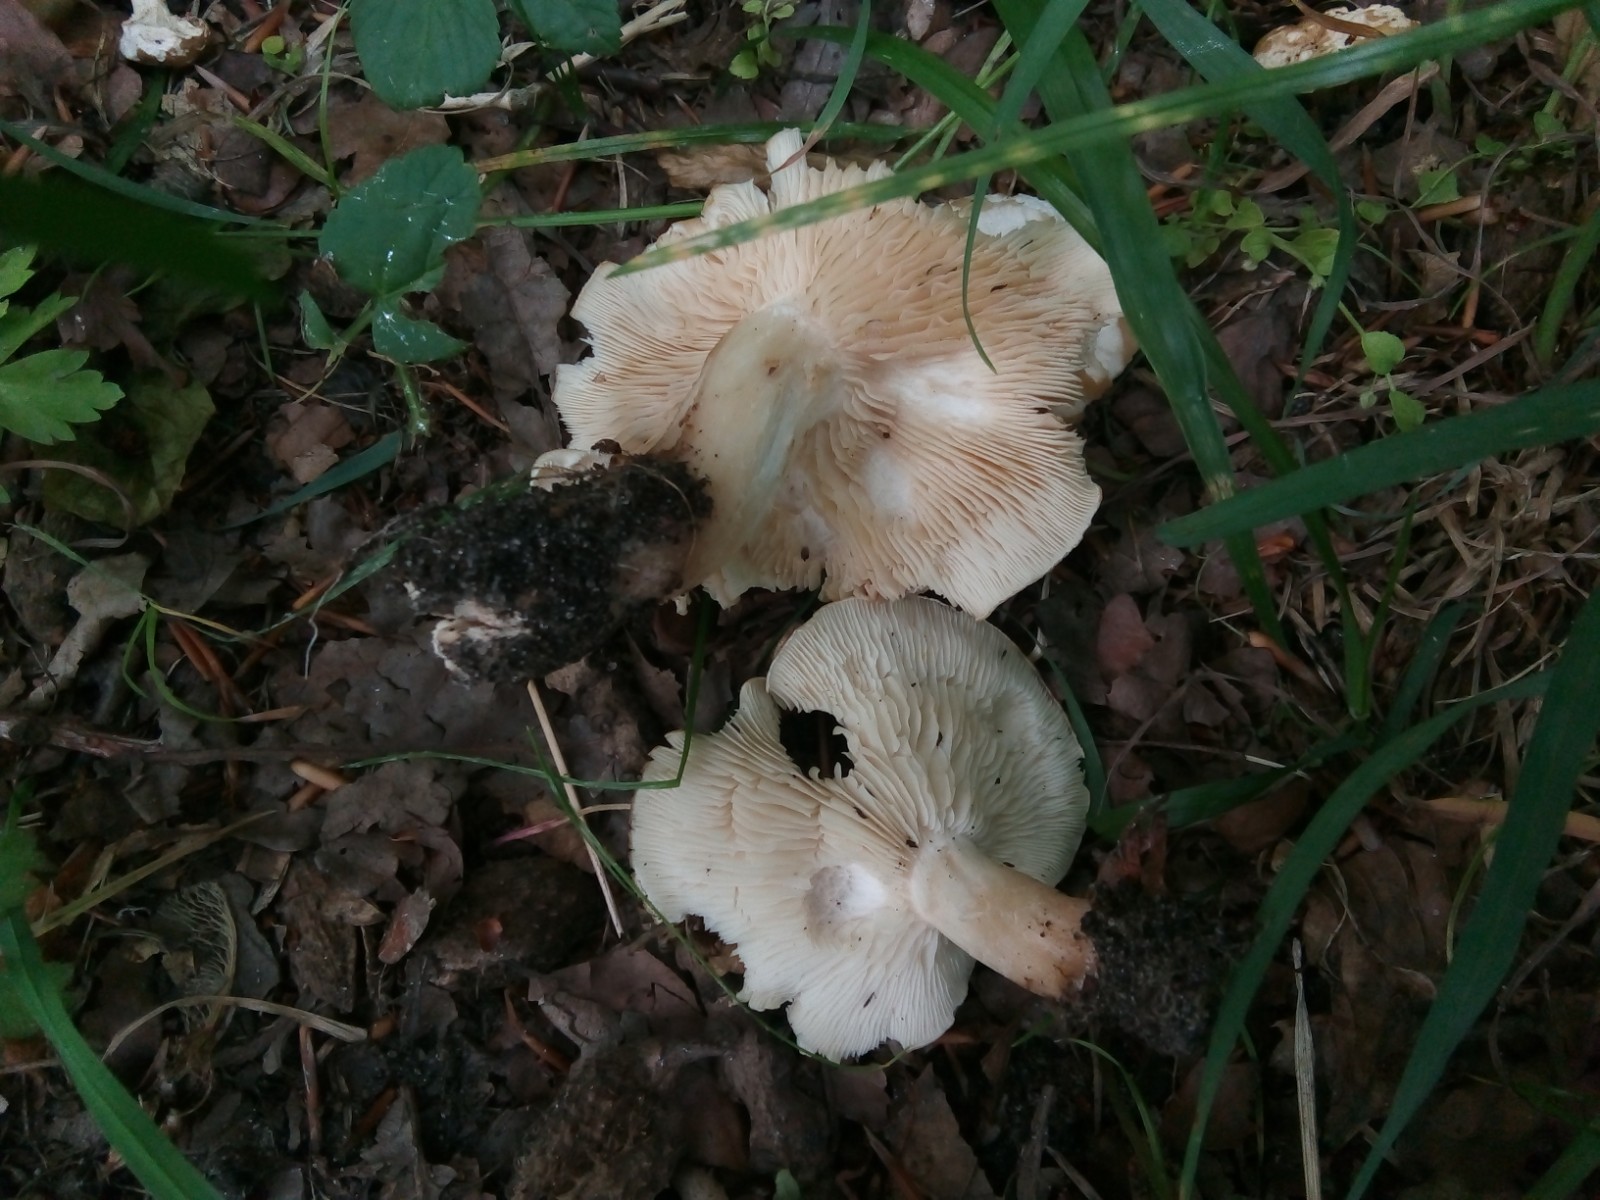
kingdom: Fungi
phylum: Basidiomycota
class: Agaricomycetes
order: Agaricales
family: Lyophyllaceae
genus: Calocybe
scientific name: Calocybe gambosa
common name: vårmusseron
